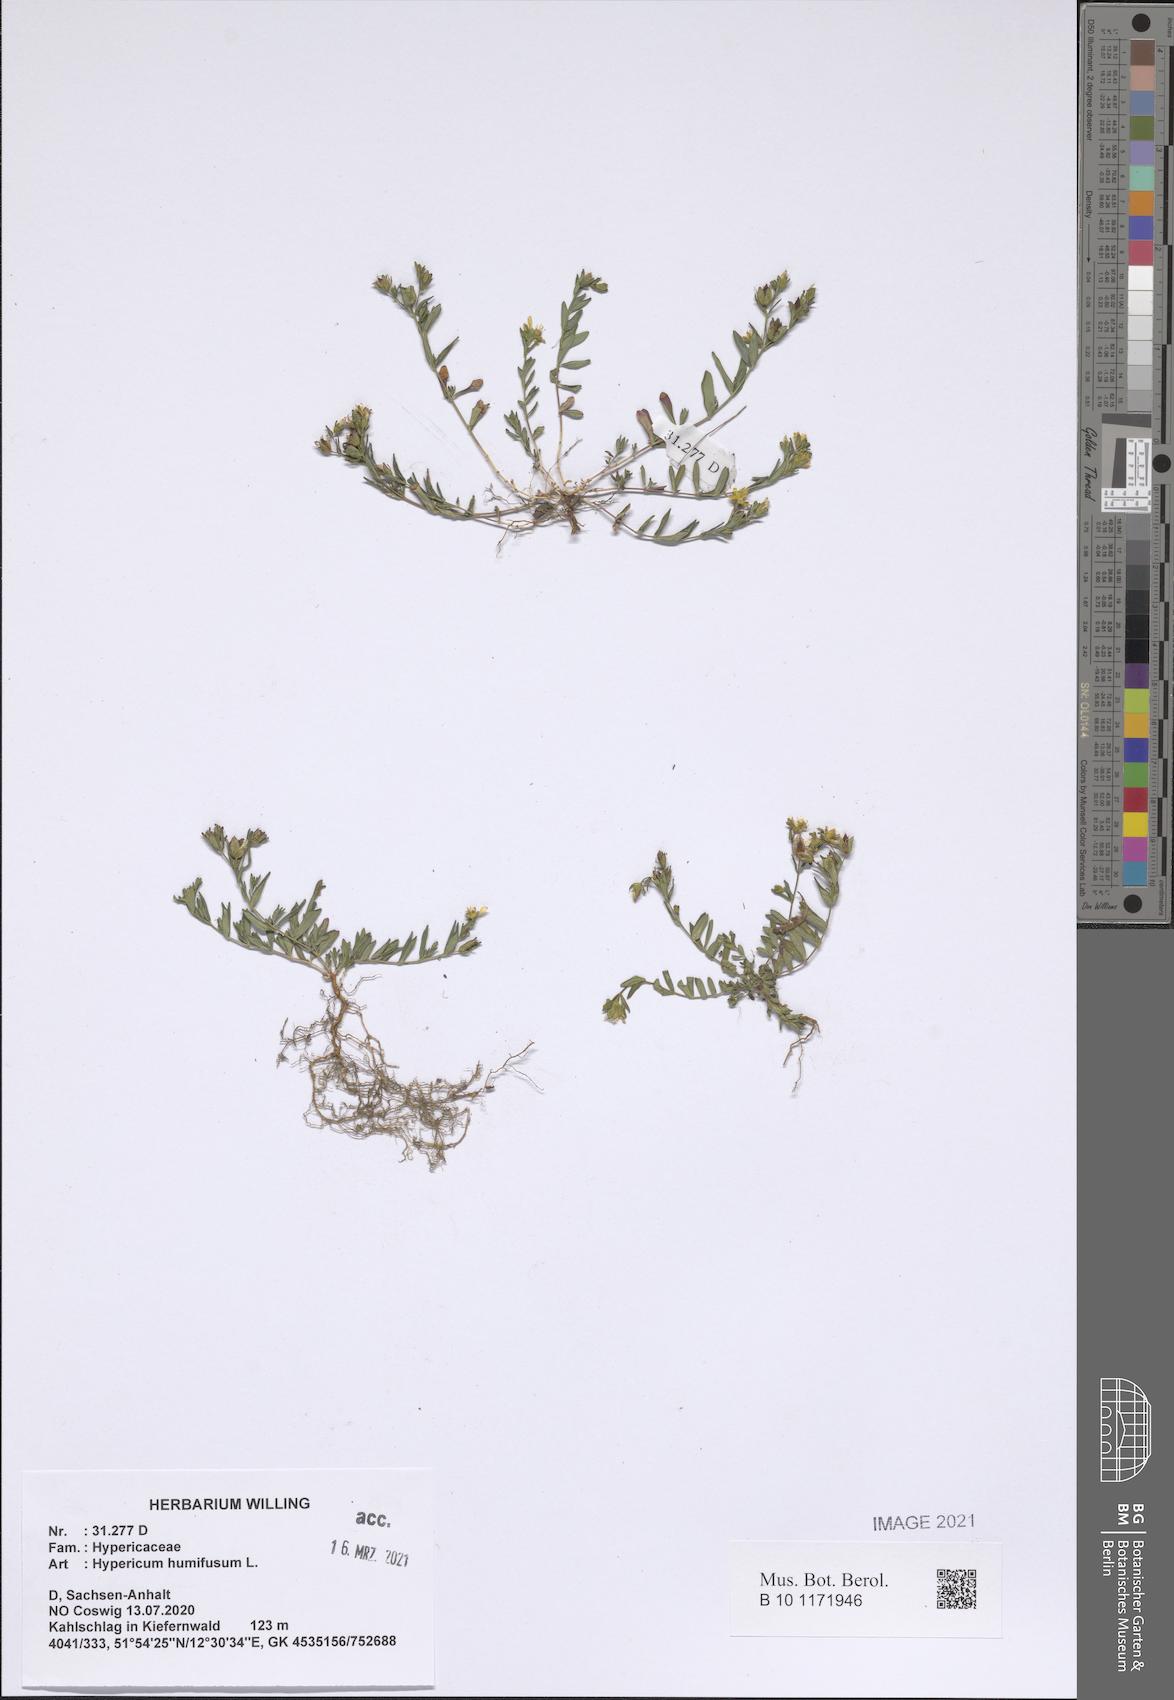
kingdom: Plantae
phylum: Tracheophyta
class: Magnoliopsida
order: Malpighiales
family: Hypericaceae
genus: Hypericum
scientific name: Hypericum humifusum
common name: Trailing st. john's-wort
